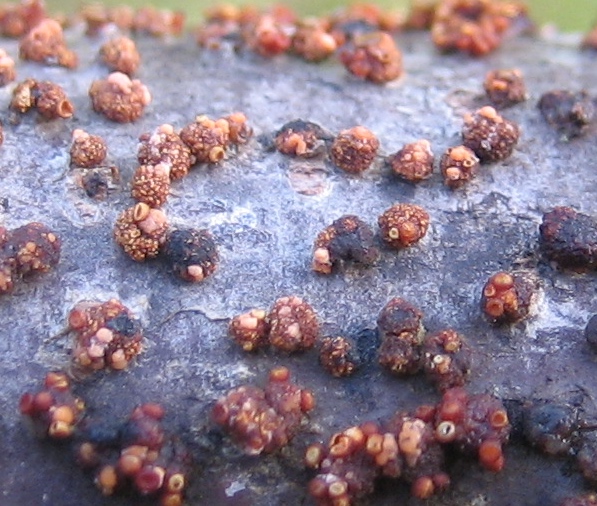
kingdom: Fungi
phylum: Ascomycota
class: Sordariomycetes
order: Hypocreales
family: Nectriaceae
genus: Nectria
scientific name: Nectria cinnabarina
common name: almindelig cinnobersvamp
